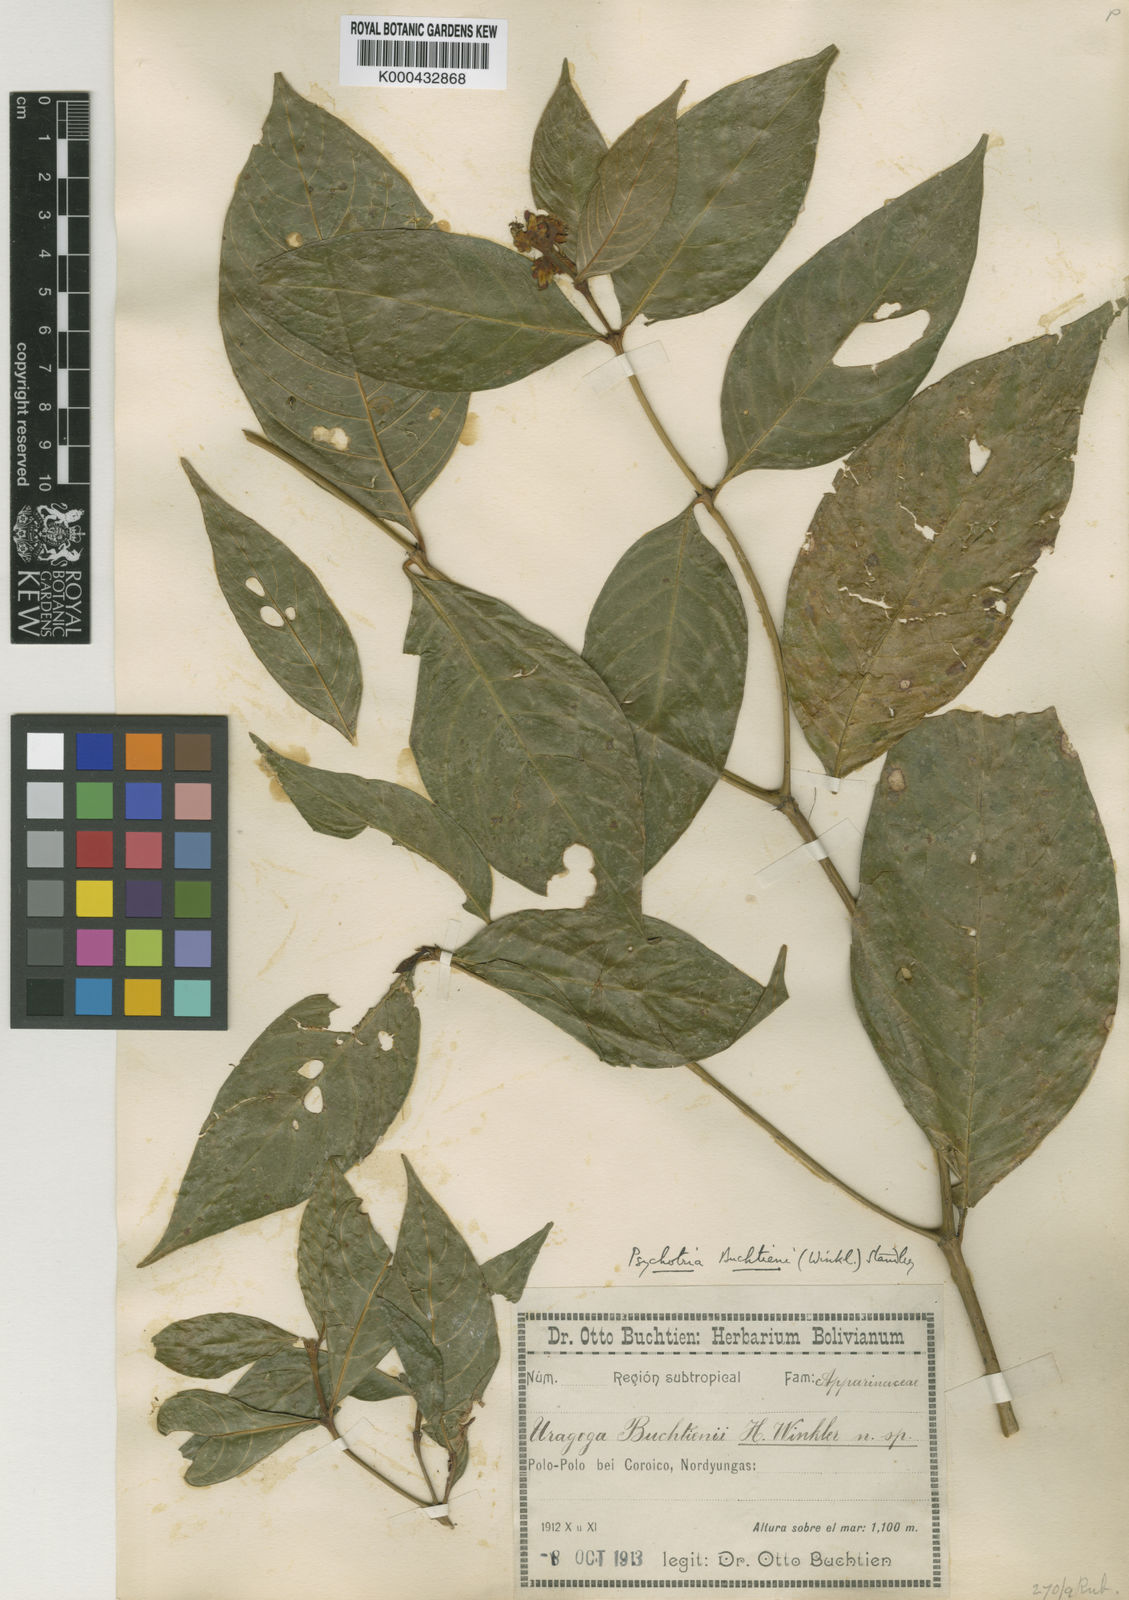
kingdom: Plantae
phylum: Tracheophyta
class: Magnoliopsida
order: Gentianales
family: Rubiaceae
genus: Palicourea
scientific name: Palicourea winkleri
